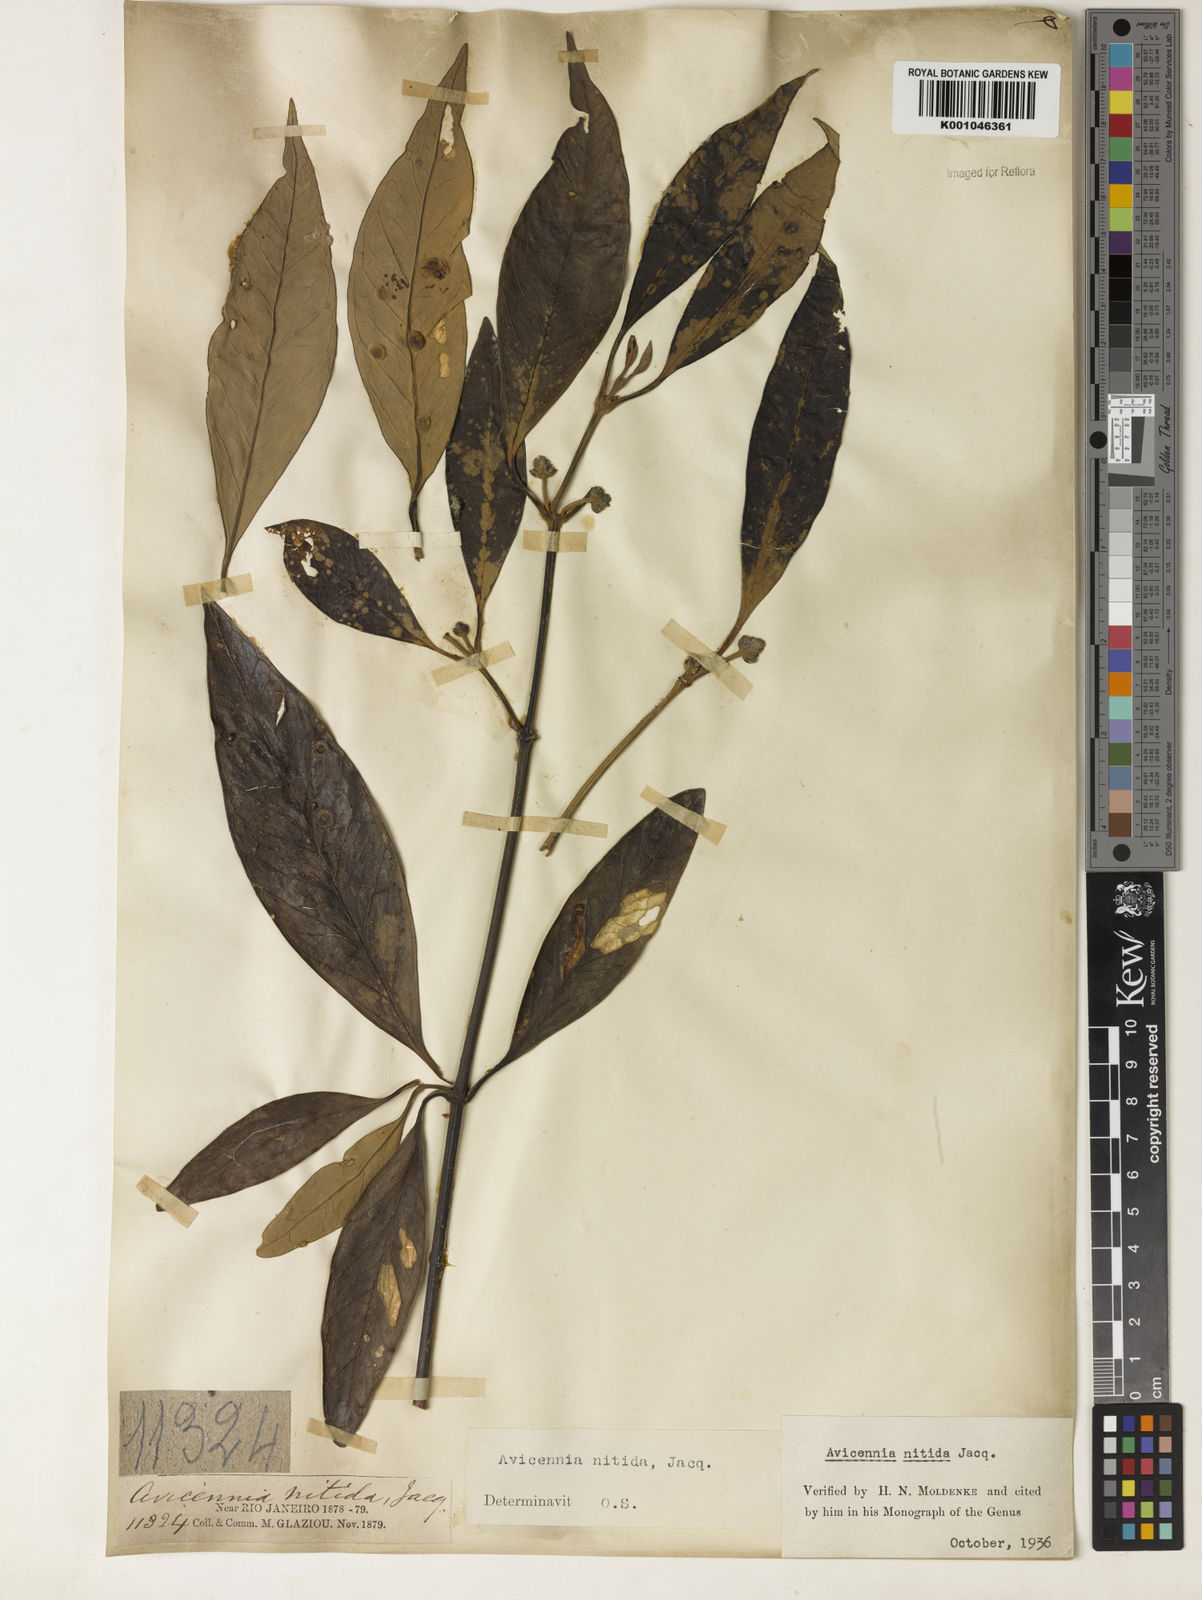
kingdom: Plantae
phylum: Tracheophyta
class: Magnoliopsida
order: Lamiales
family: Acanthaceae
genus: Avicennia
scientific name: Avicennia germinans
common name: Black mangrove
